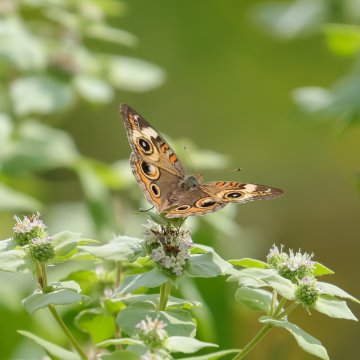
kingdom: Animalia
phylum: Arthropoda
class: Insecta
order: Lepidoptera
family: Nymphalidae
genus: Junonia
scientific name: Junonia coenia
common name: Common Buckeye
